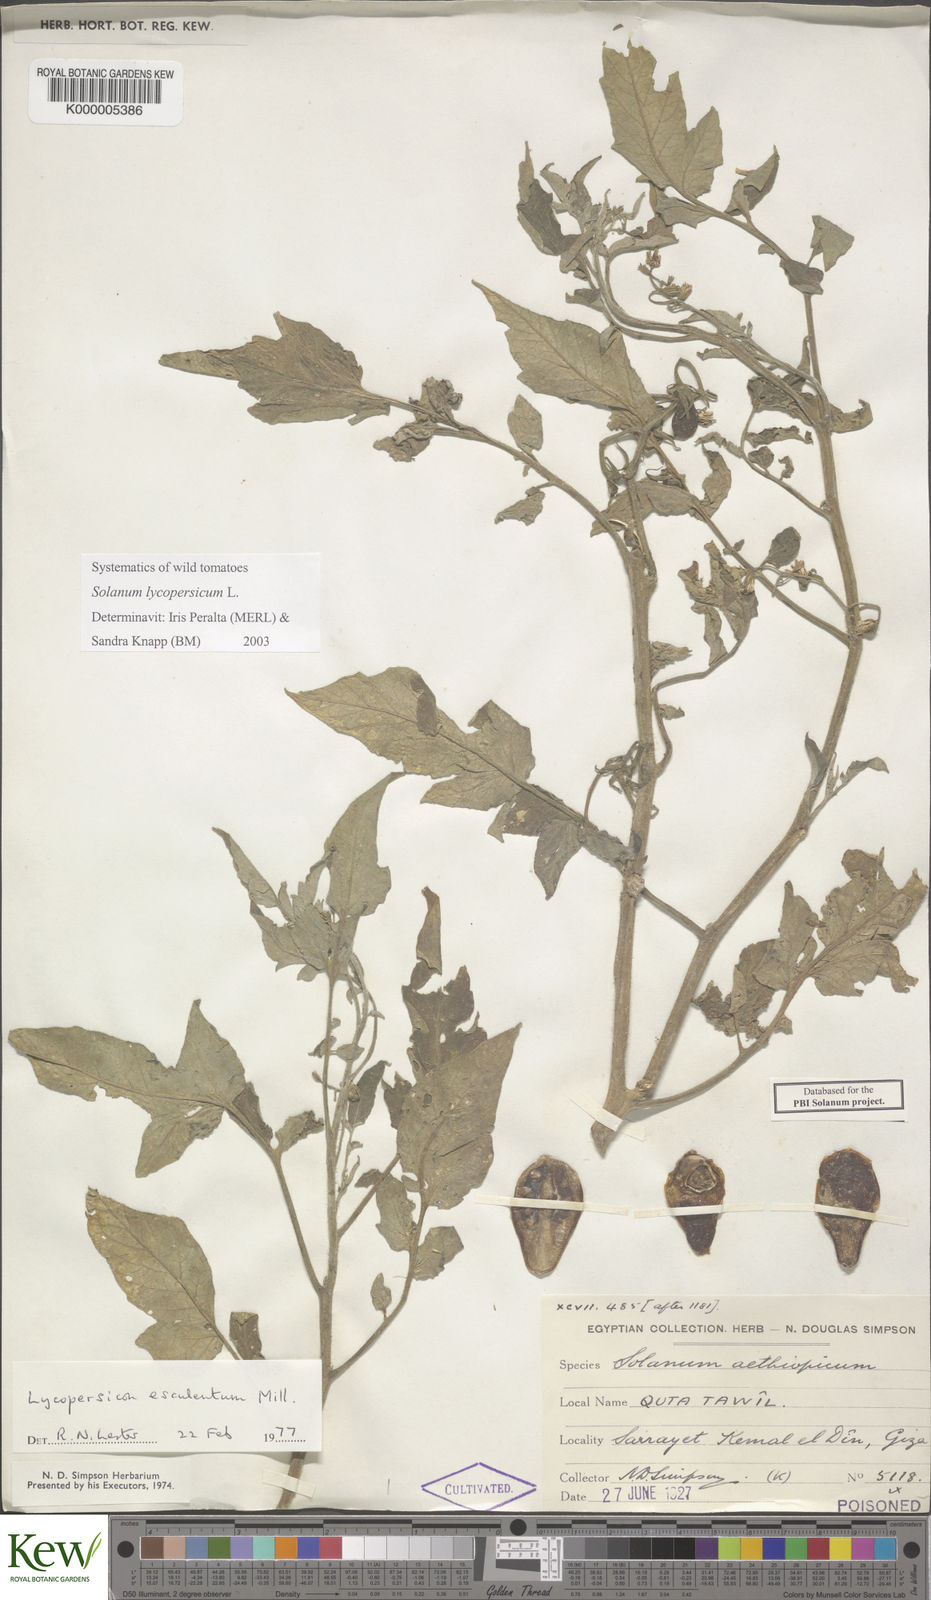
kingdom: Plantae
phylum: Tracheophyta
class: Magnoliopsida
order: Solanales
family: Solanaceae
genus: Solanum
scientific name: Solanum lycopersicum
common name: Garden tomato
